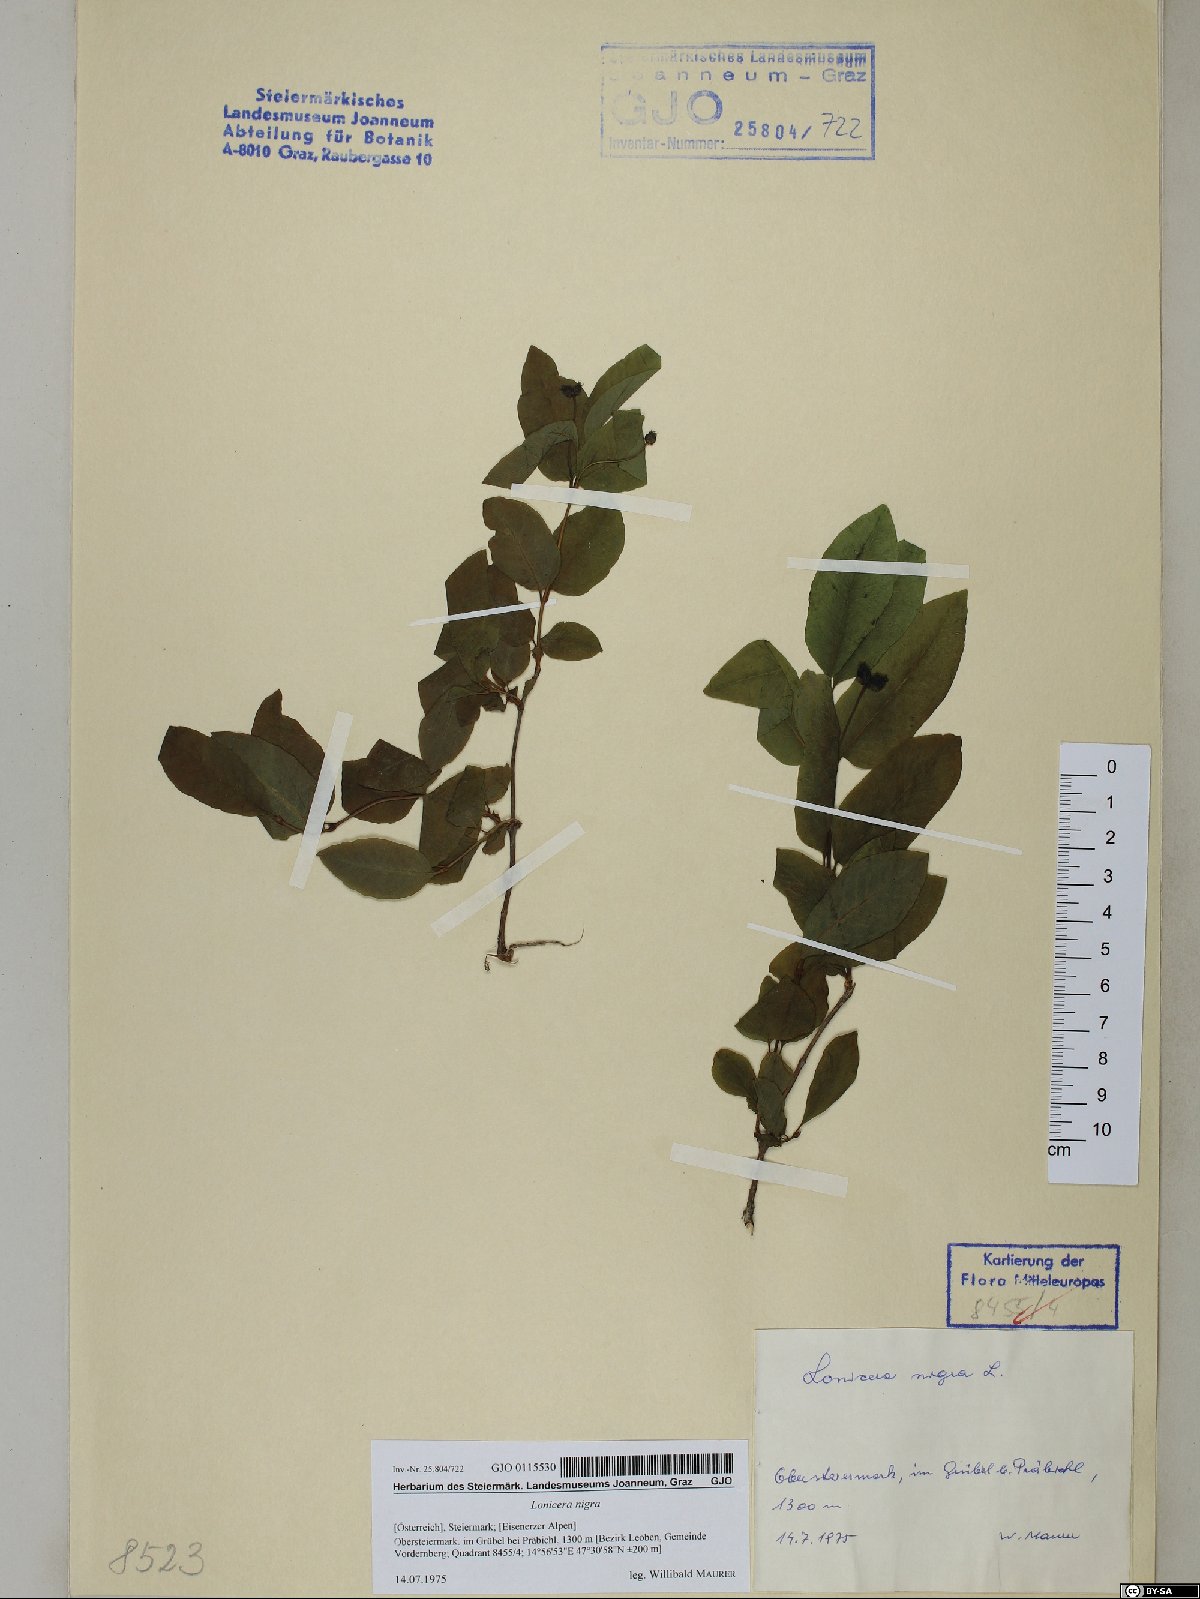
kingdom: Plantae
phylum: Tracheophyta
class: Magnoliopsida
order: Dipsacales
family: Caprifoliaceae
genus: Lonicera
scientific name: Lonicera nigra
